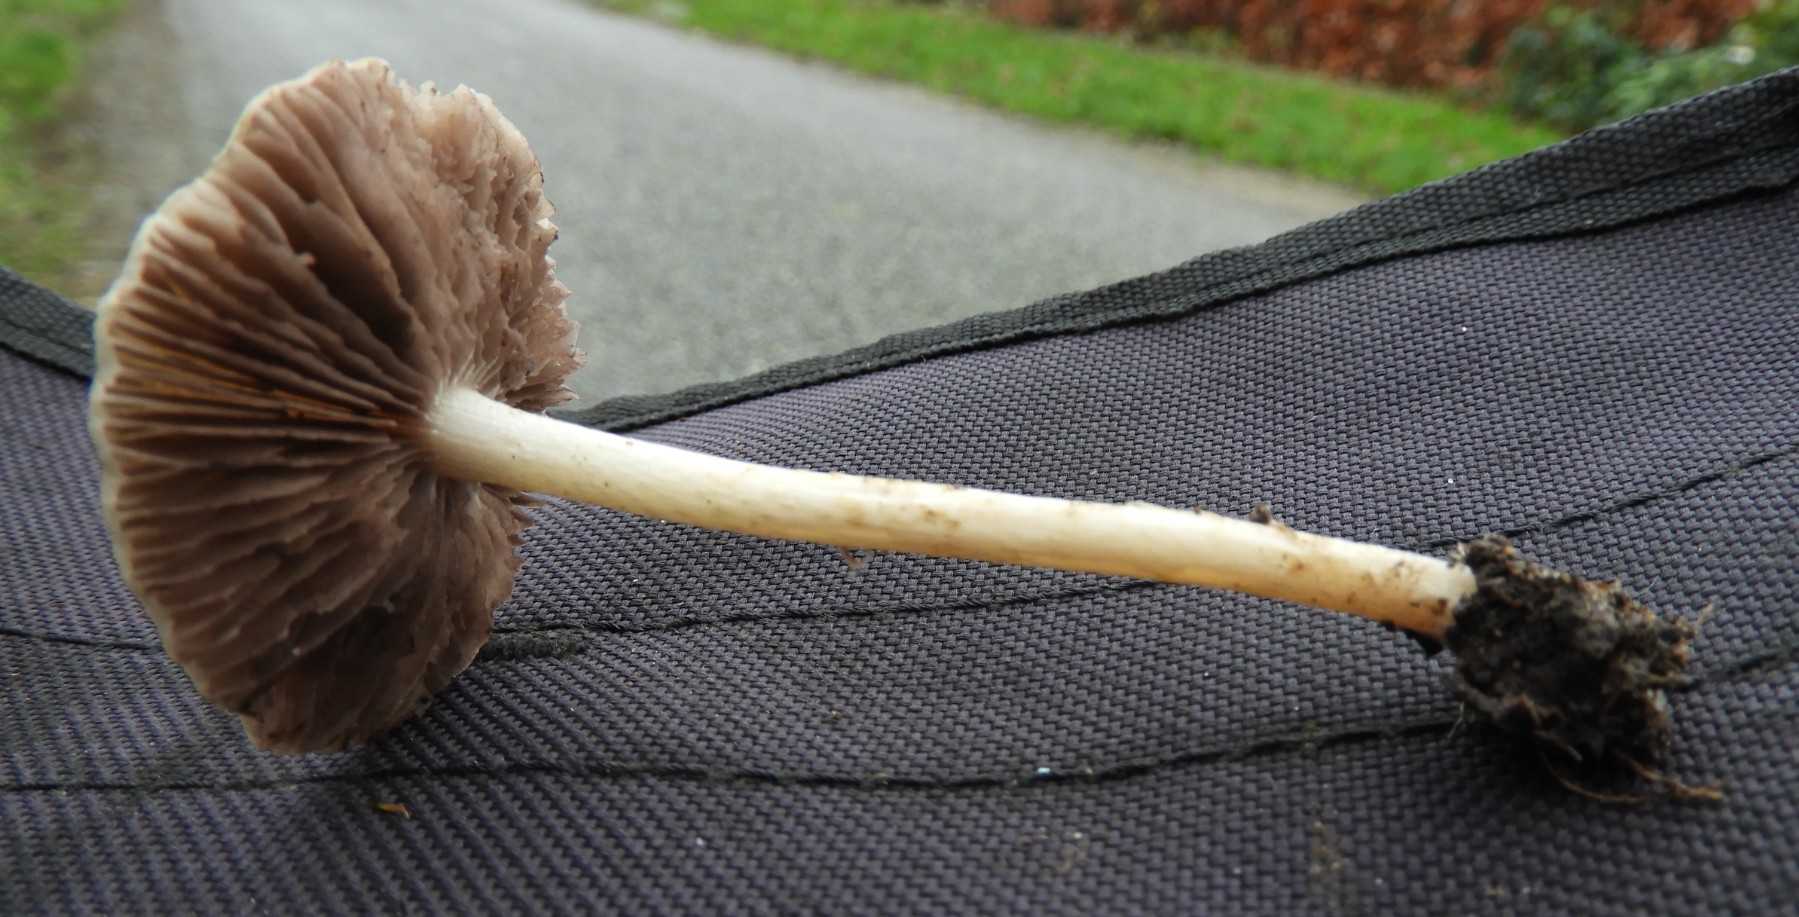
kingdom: Fungi
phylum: Basidiomycota
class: Agaricomycetes
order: Agaricales
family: Psathyrellaceae
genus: Psathyrella
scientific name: Psathyrella
